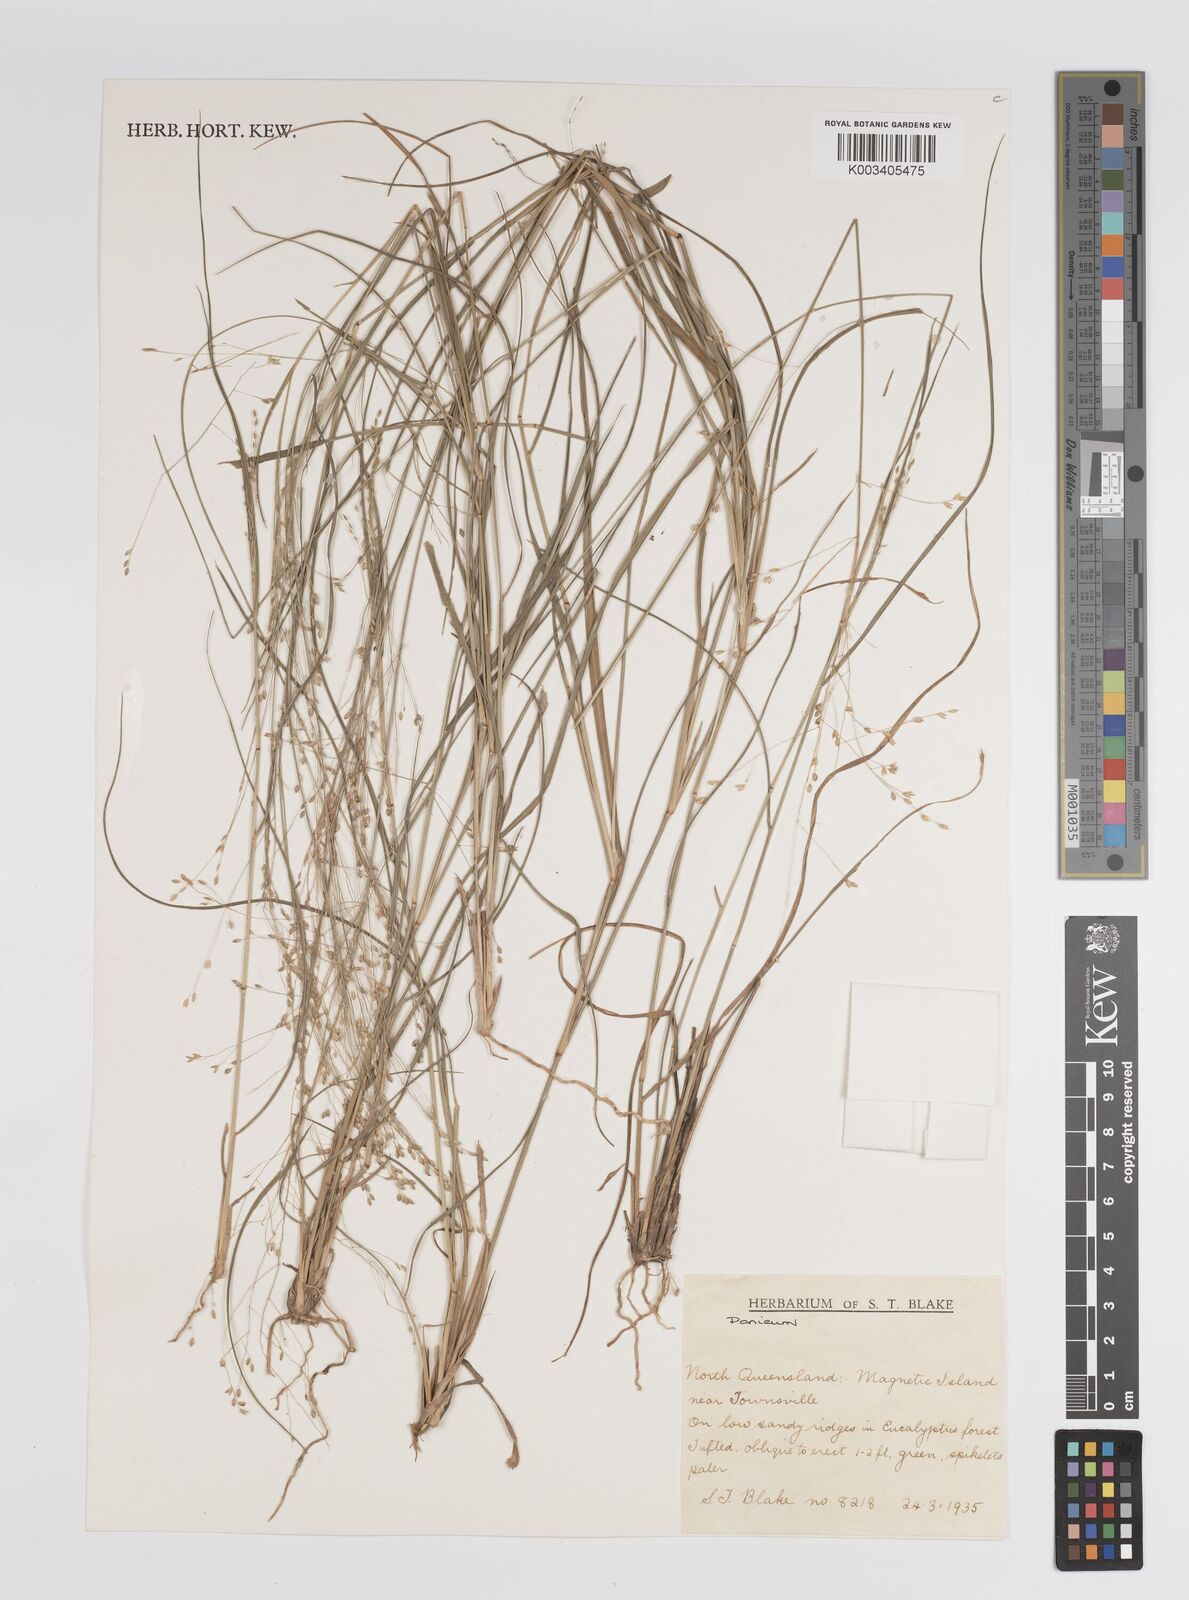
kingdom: Plantae
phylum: Tracheophyta
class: Liliopsida
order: Poales
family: Poaceae
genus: Panicum
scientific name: Panicum
